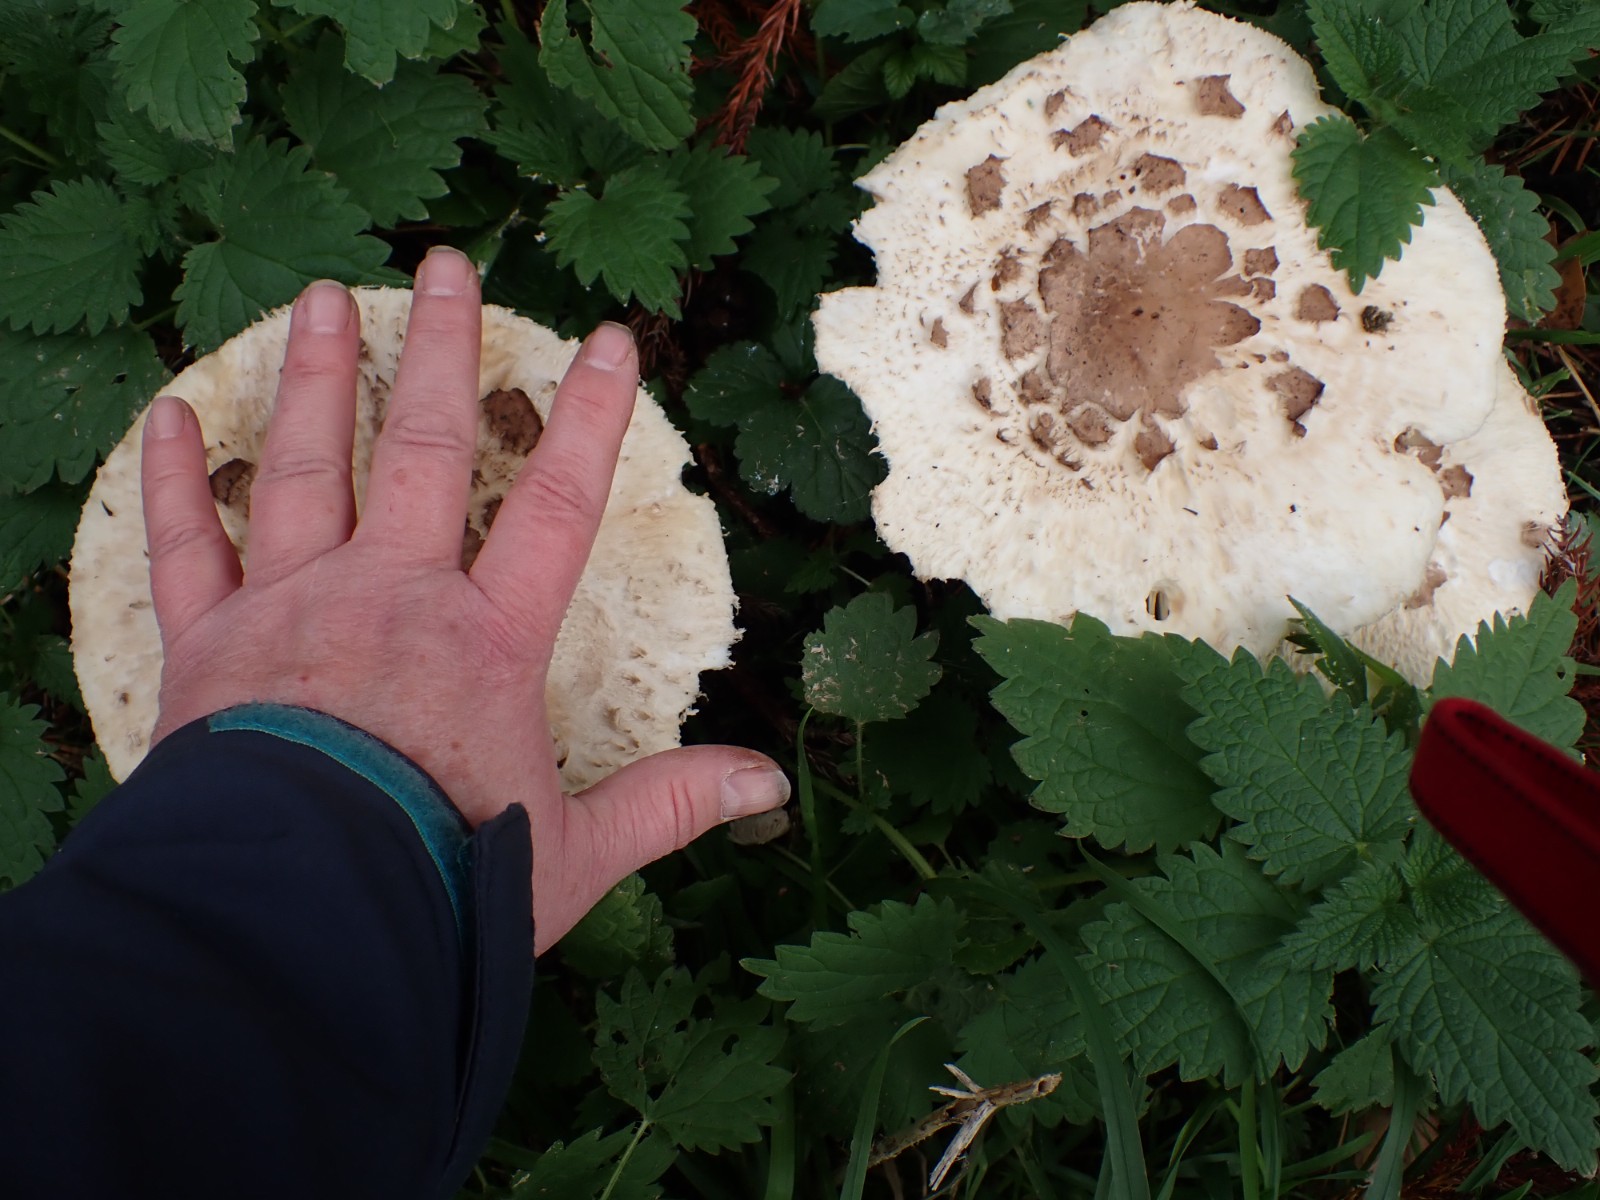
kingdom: Fungi
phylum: Basidiomycota
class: Agaricomycetes
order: Agaricales
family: Agaricaceae
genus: Chlorophyllum
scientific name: Chlorophyllum brunneum
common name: giftig rabarberhat
